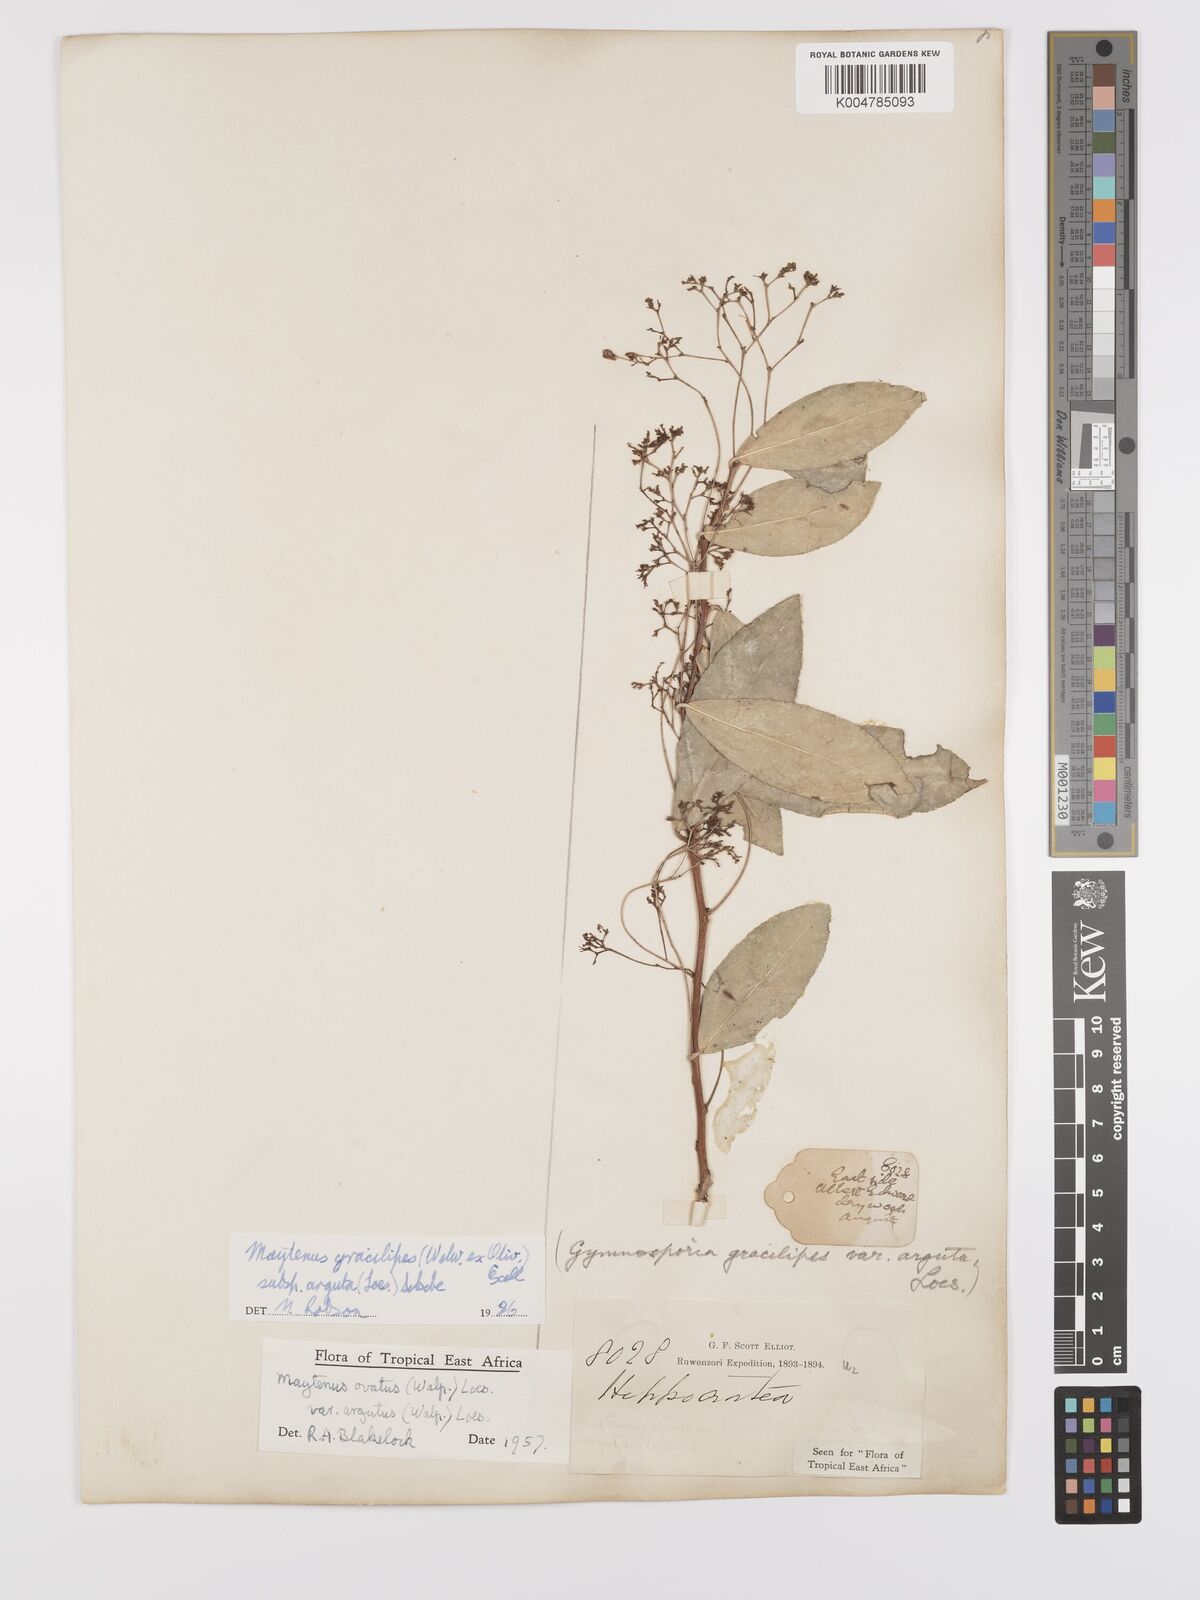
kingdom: Plantae
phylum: Tracheophyta
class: Magnoliopsida
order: Celastrales
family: Celastraceae
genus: Gymnosporia
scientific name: Gymnosporia gracilipes
